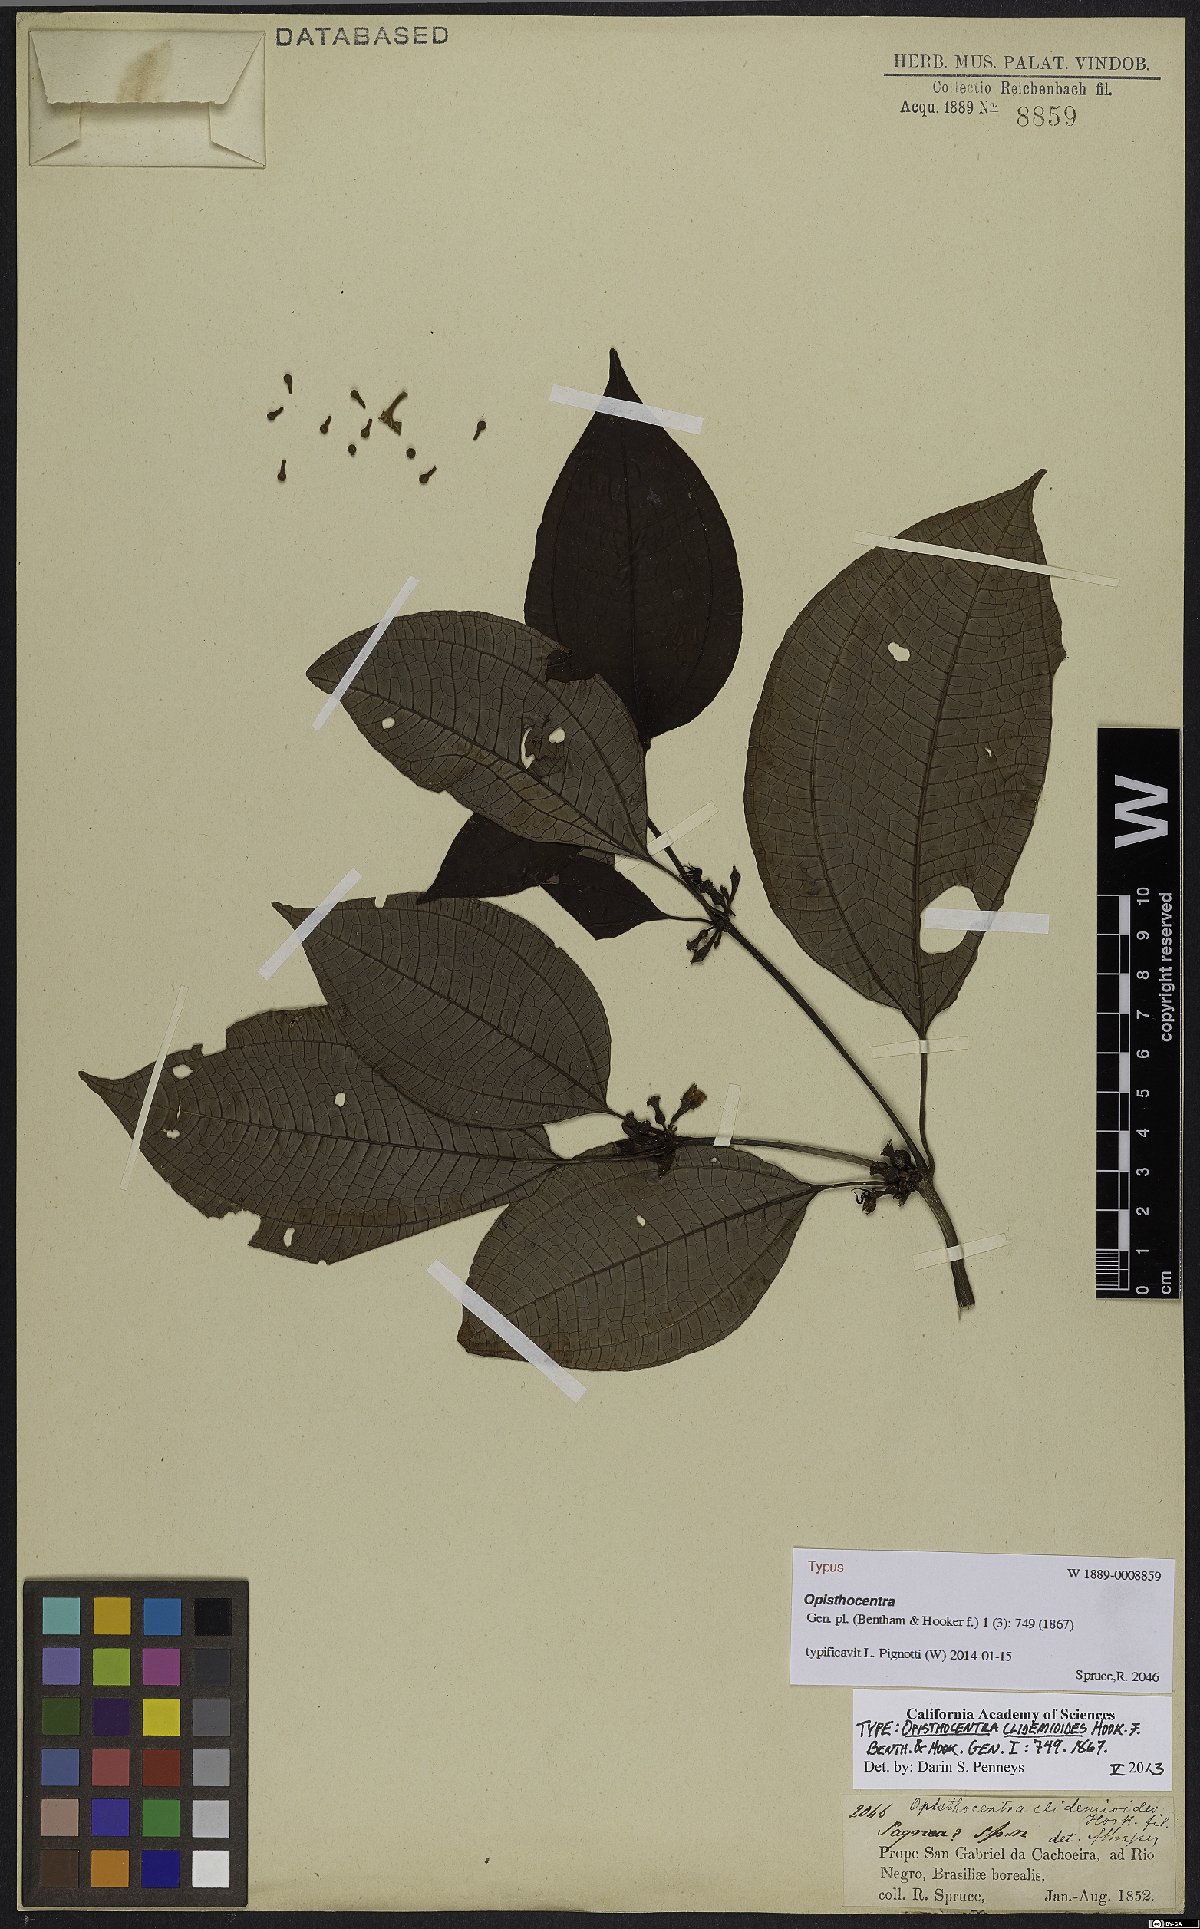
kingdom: Plantae
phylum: Tracheophyta
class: Magnoliopsida
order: Myrtales
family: Melastomataceae
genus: Opisthocentra
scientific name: Opisthocentra clidemioides
